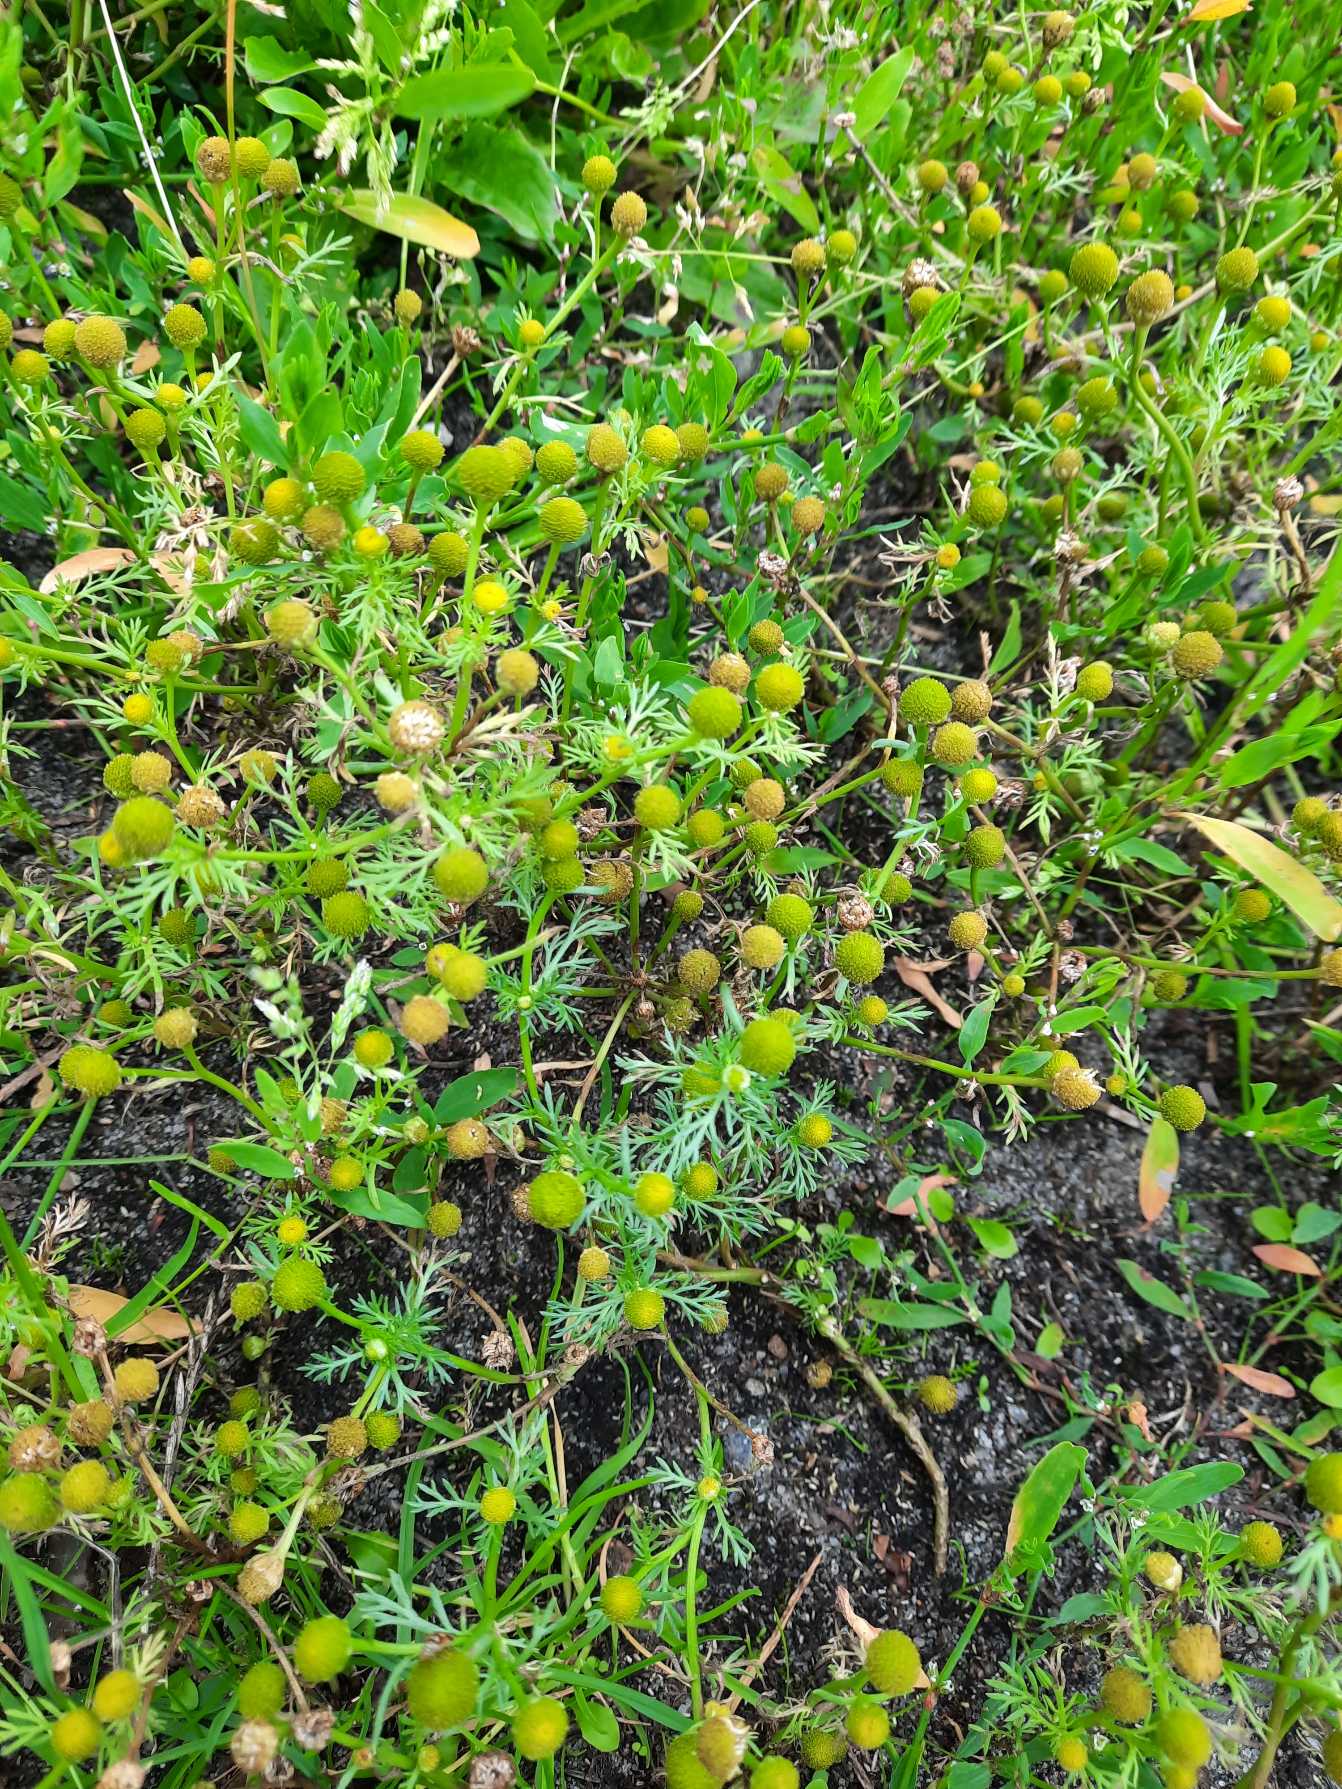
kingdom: Plantae
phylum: Tracheophyta
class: Magnoliopsida
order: Asterales
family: Asteraceae
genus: Matricaria
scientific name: Matricaria discoidea
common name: Skive-kamille
